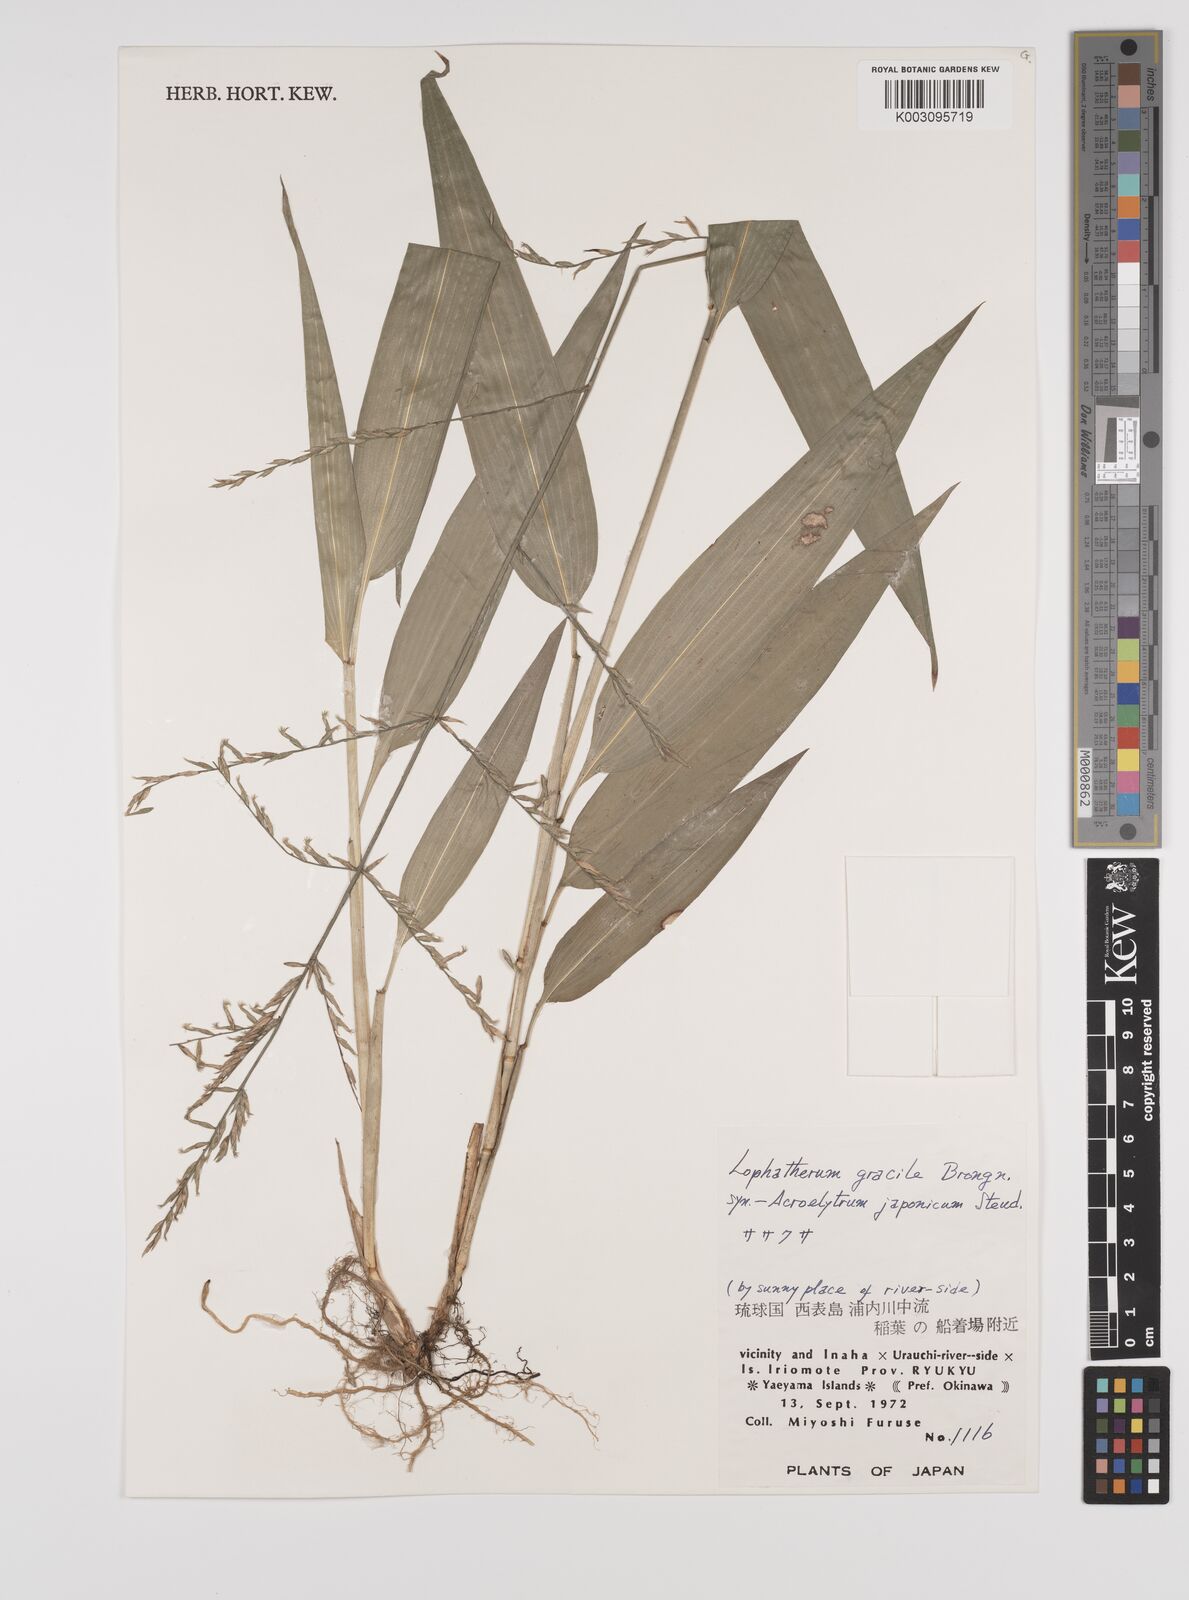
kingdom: Plantae
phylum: Tracheophyta
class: Liliopsida
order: Poales
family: Poaceae
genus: Lophatherum
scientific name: Lophatherum gracile
